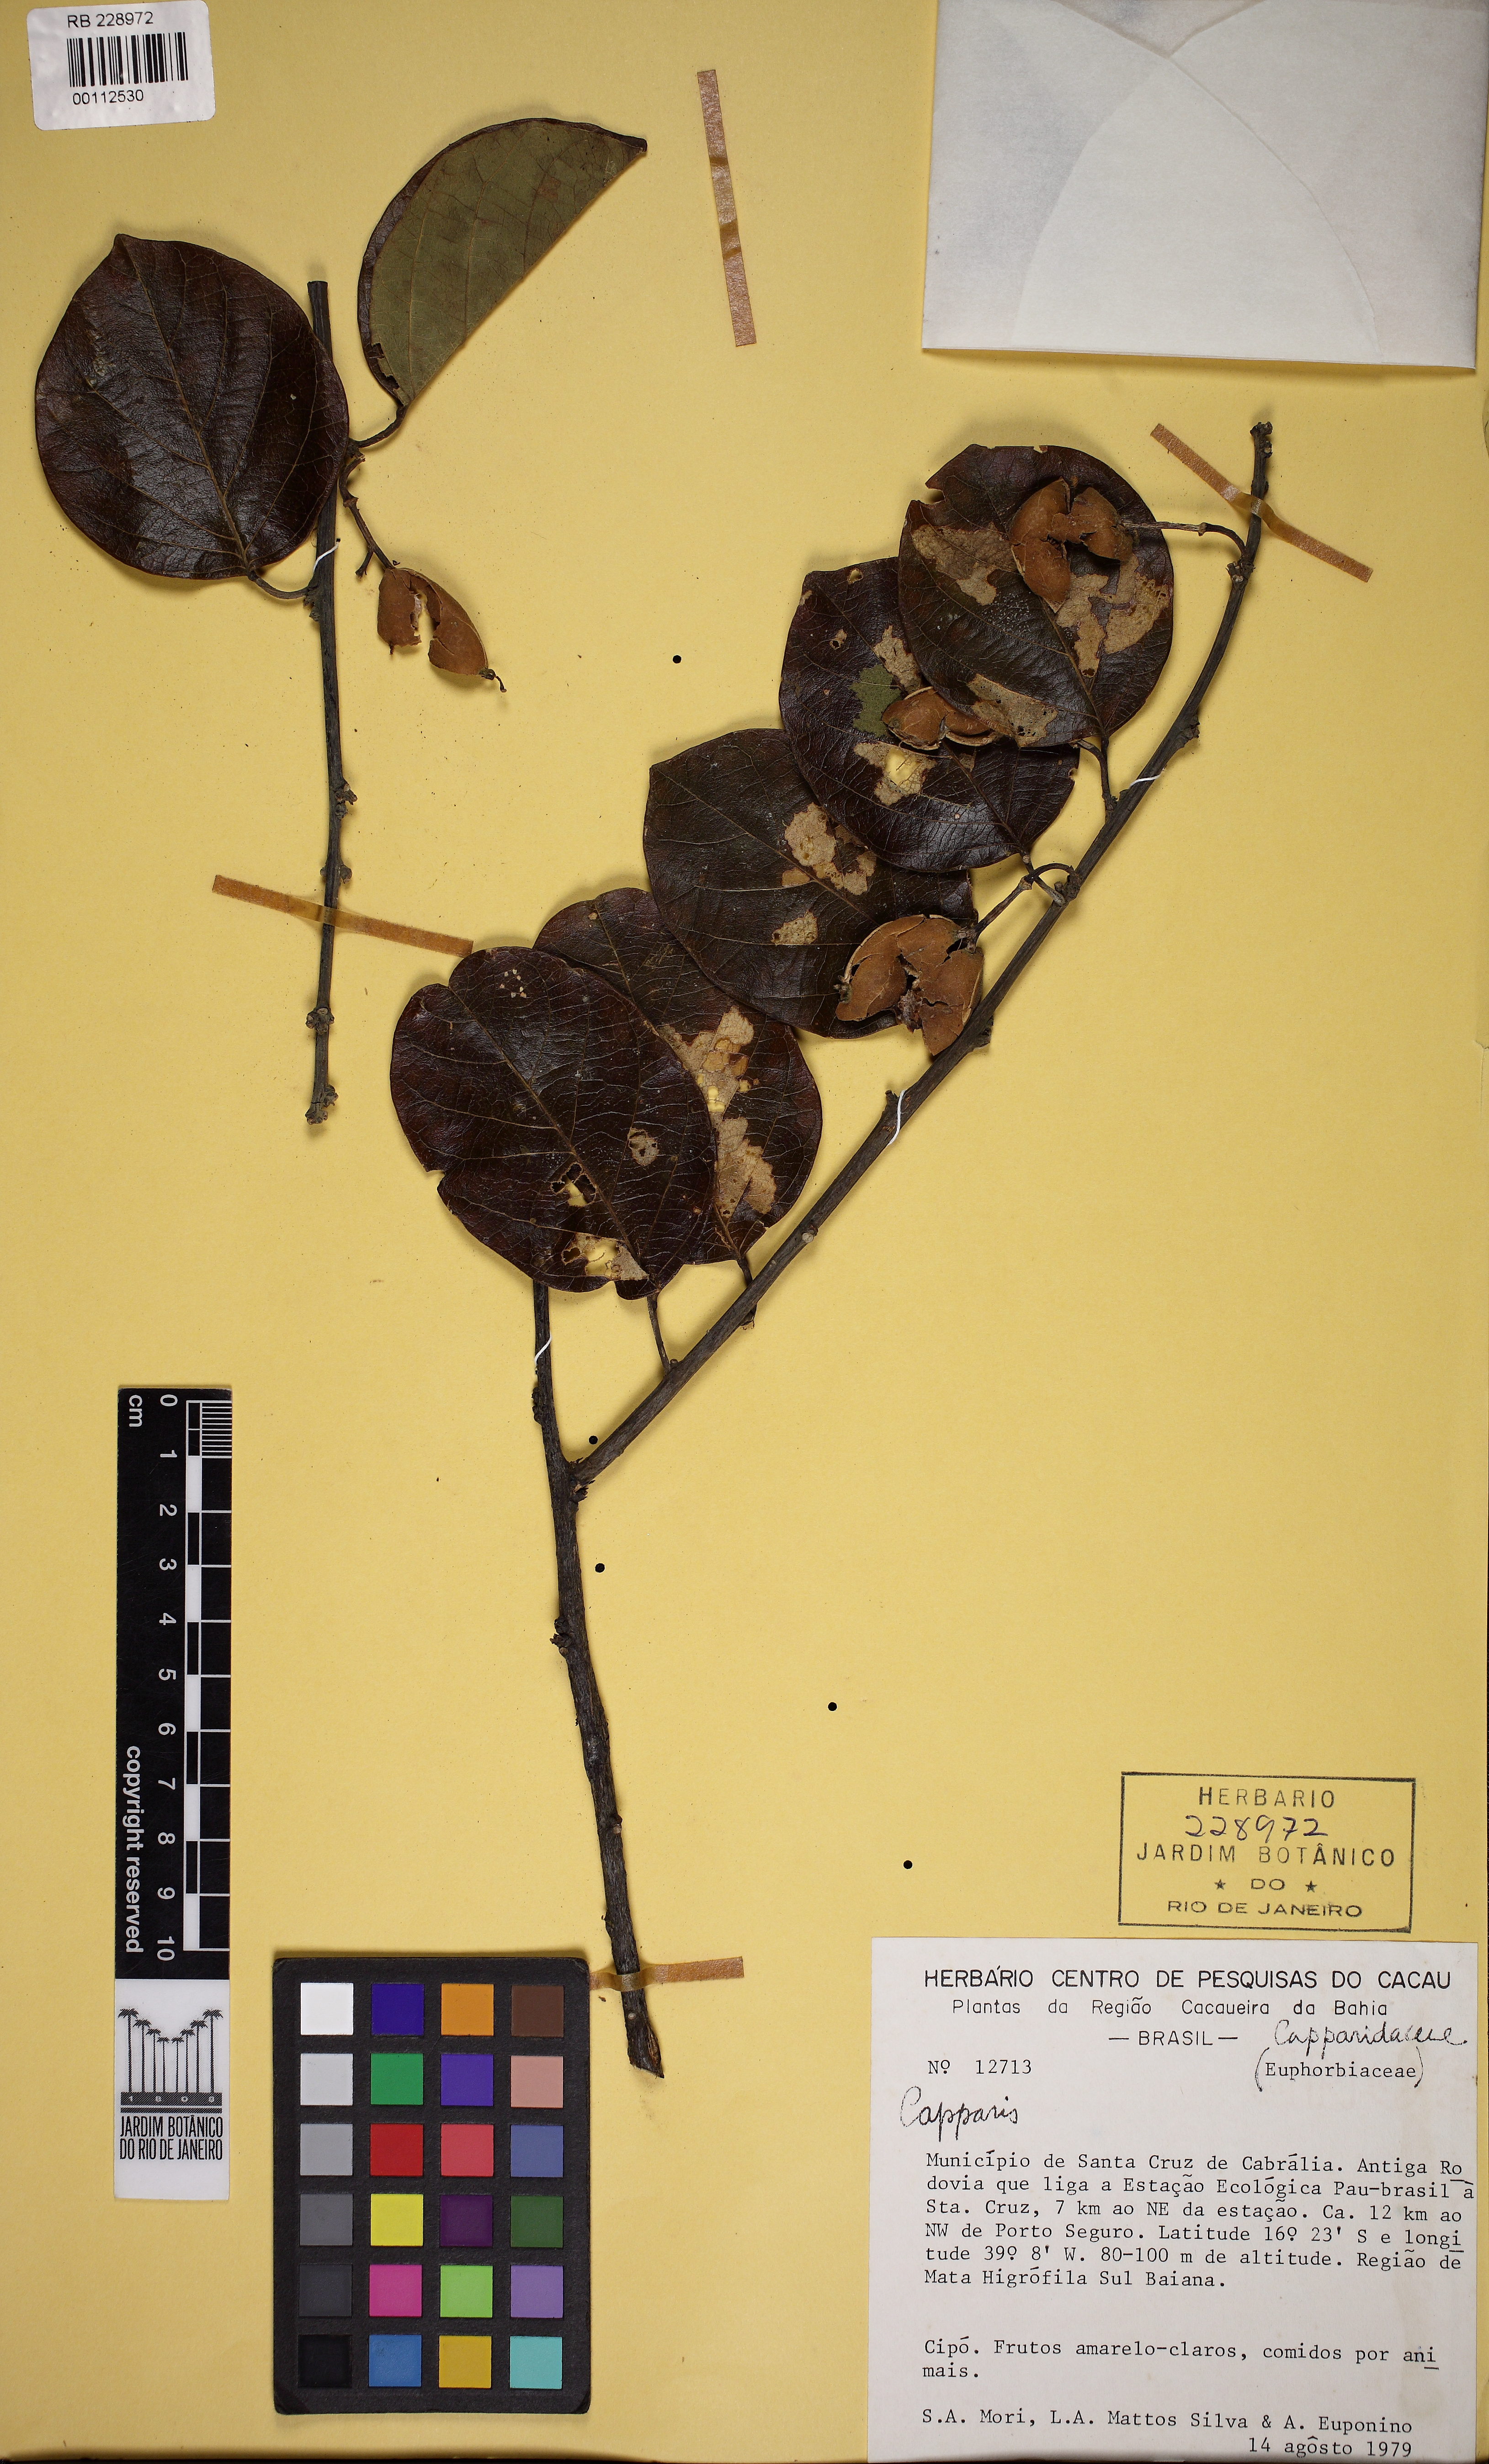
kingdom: Plantae
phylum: Tracheophyta
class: Magnoliopsida
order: Malpighiales
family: Passifloraceae
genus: Passiflora
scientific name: Passiflora
